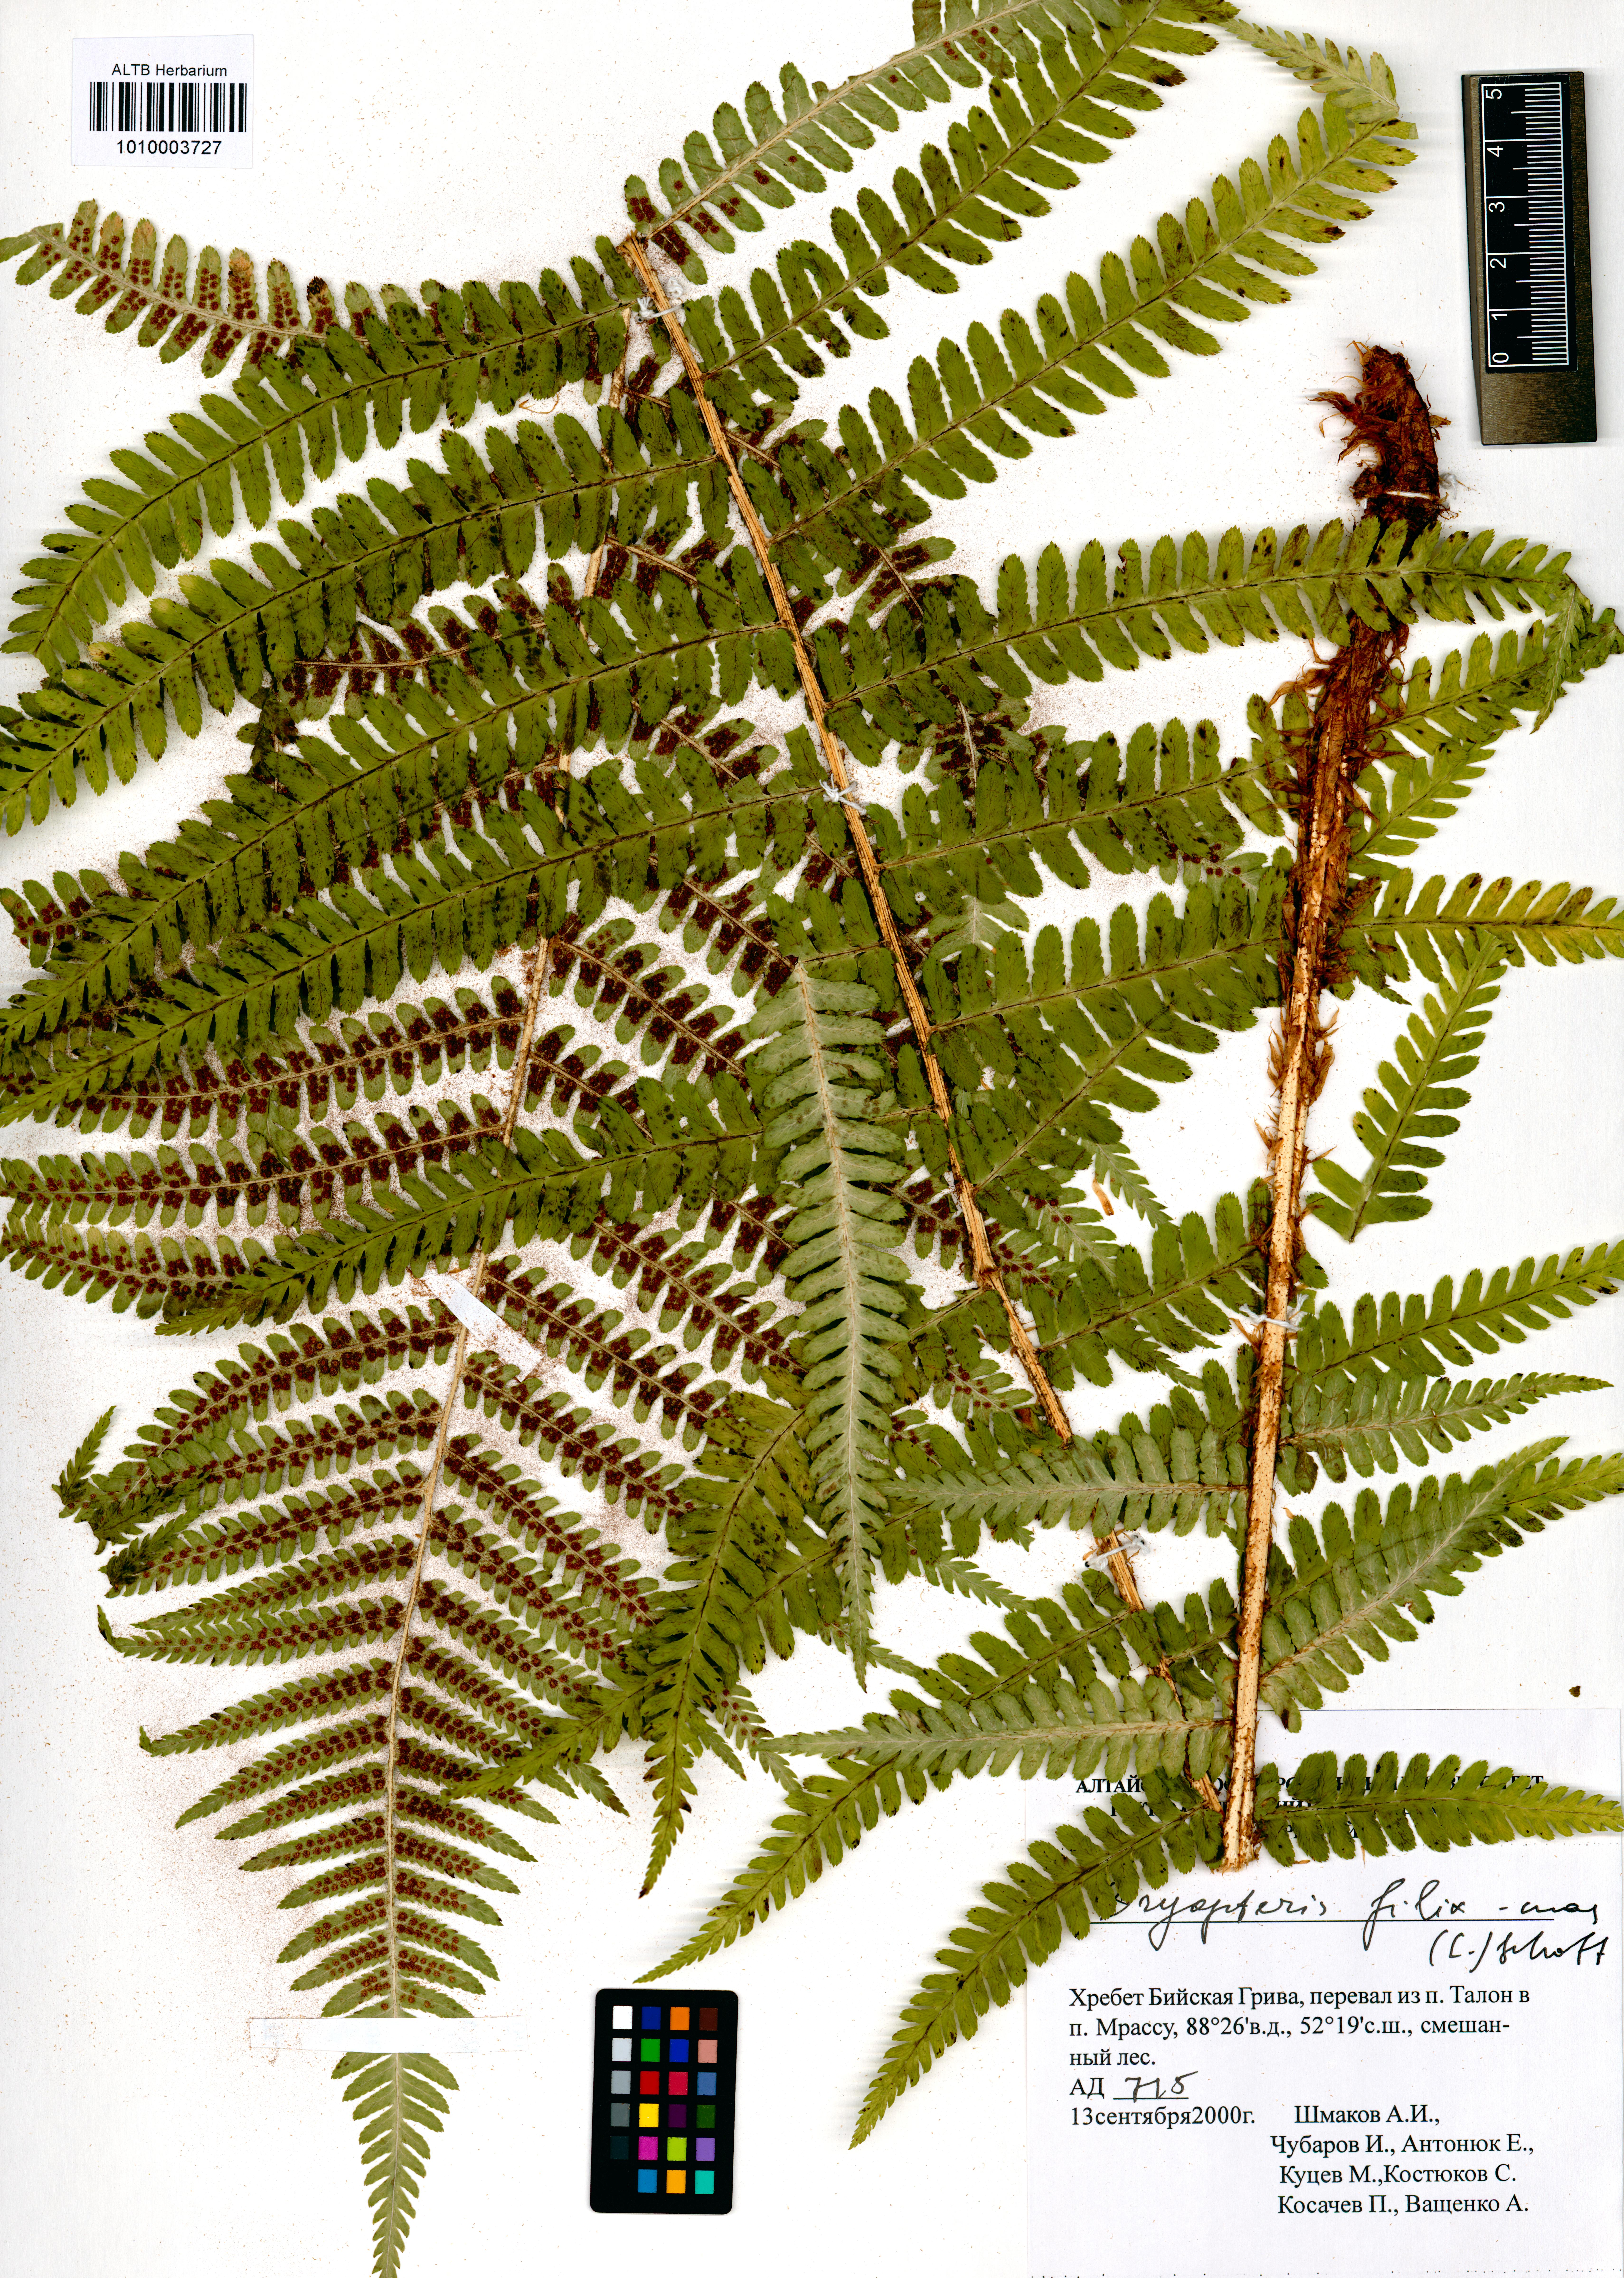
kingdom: Plantae
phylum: Tracheophyta
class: Polypodiopsida
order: Polypodiales
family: Dryopteridaceae
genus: Dryopteris
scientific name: Dryopteris filix-mas
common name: Male fern
